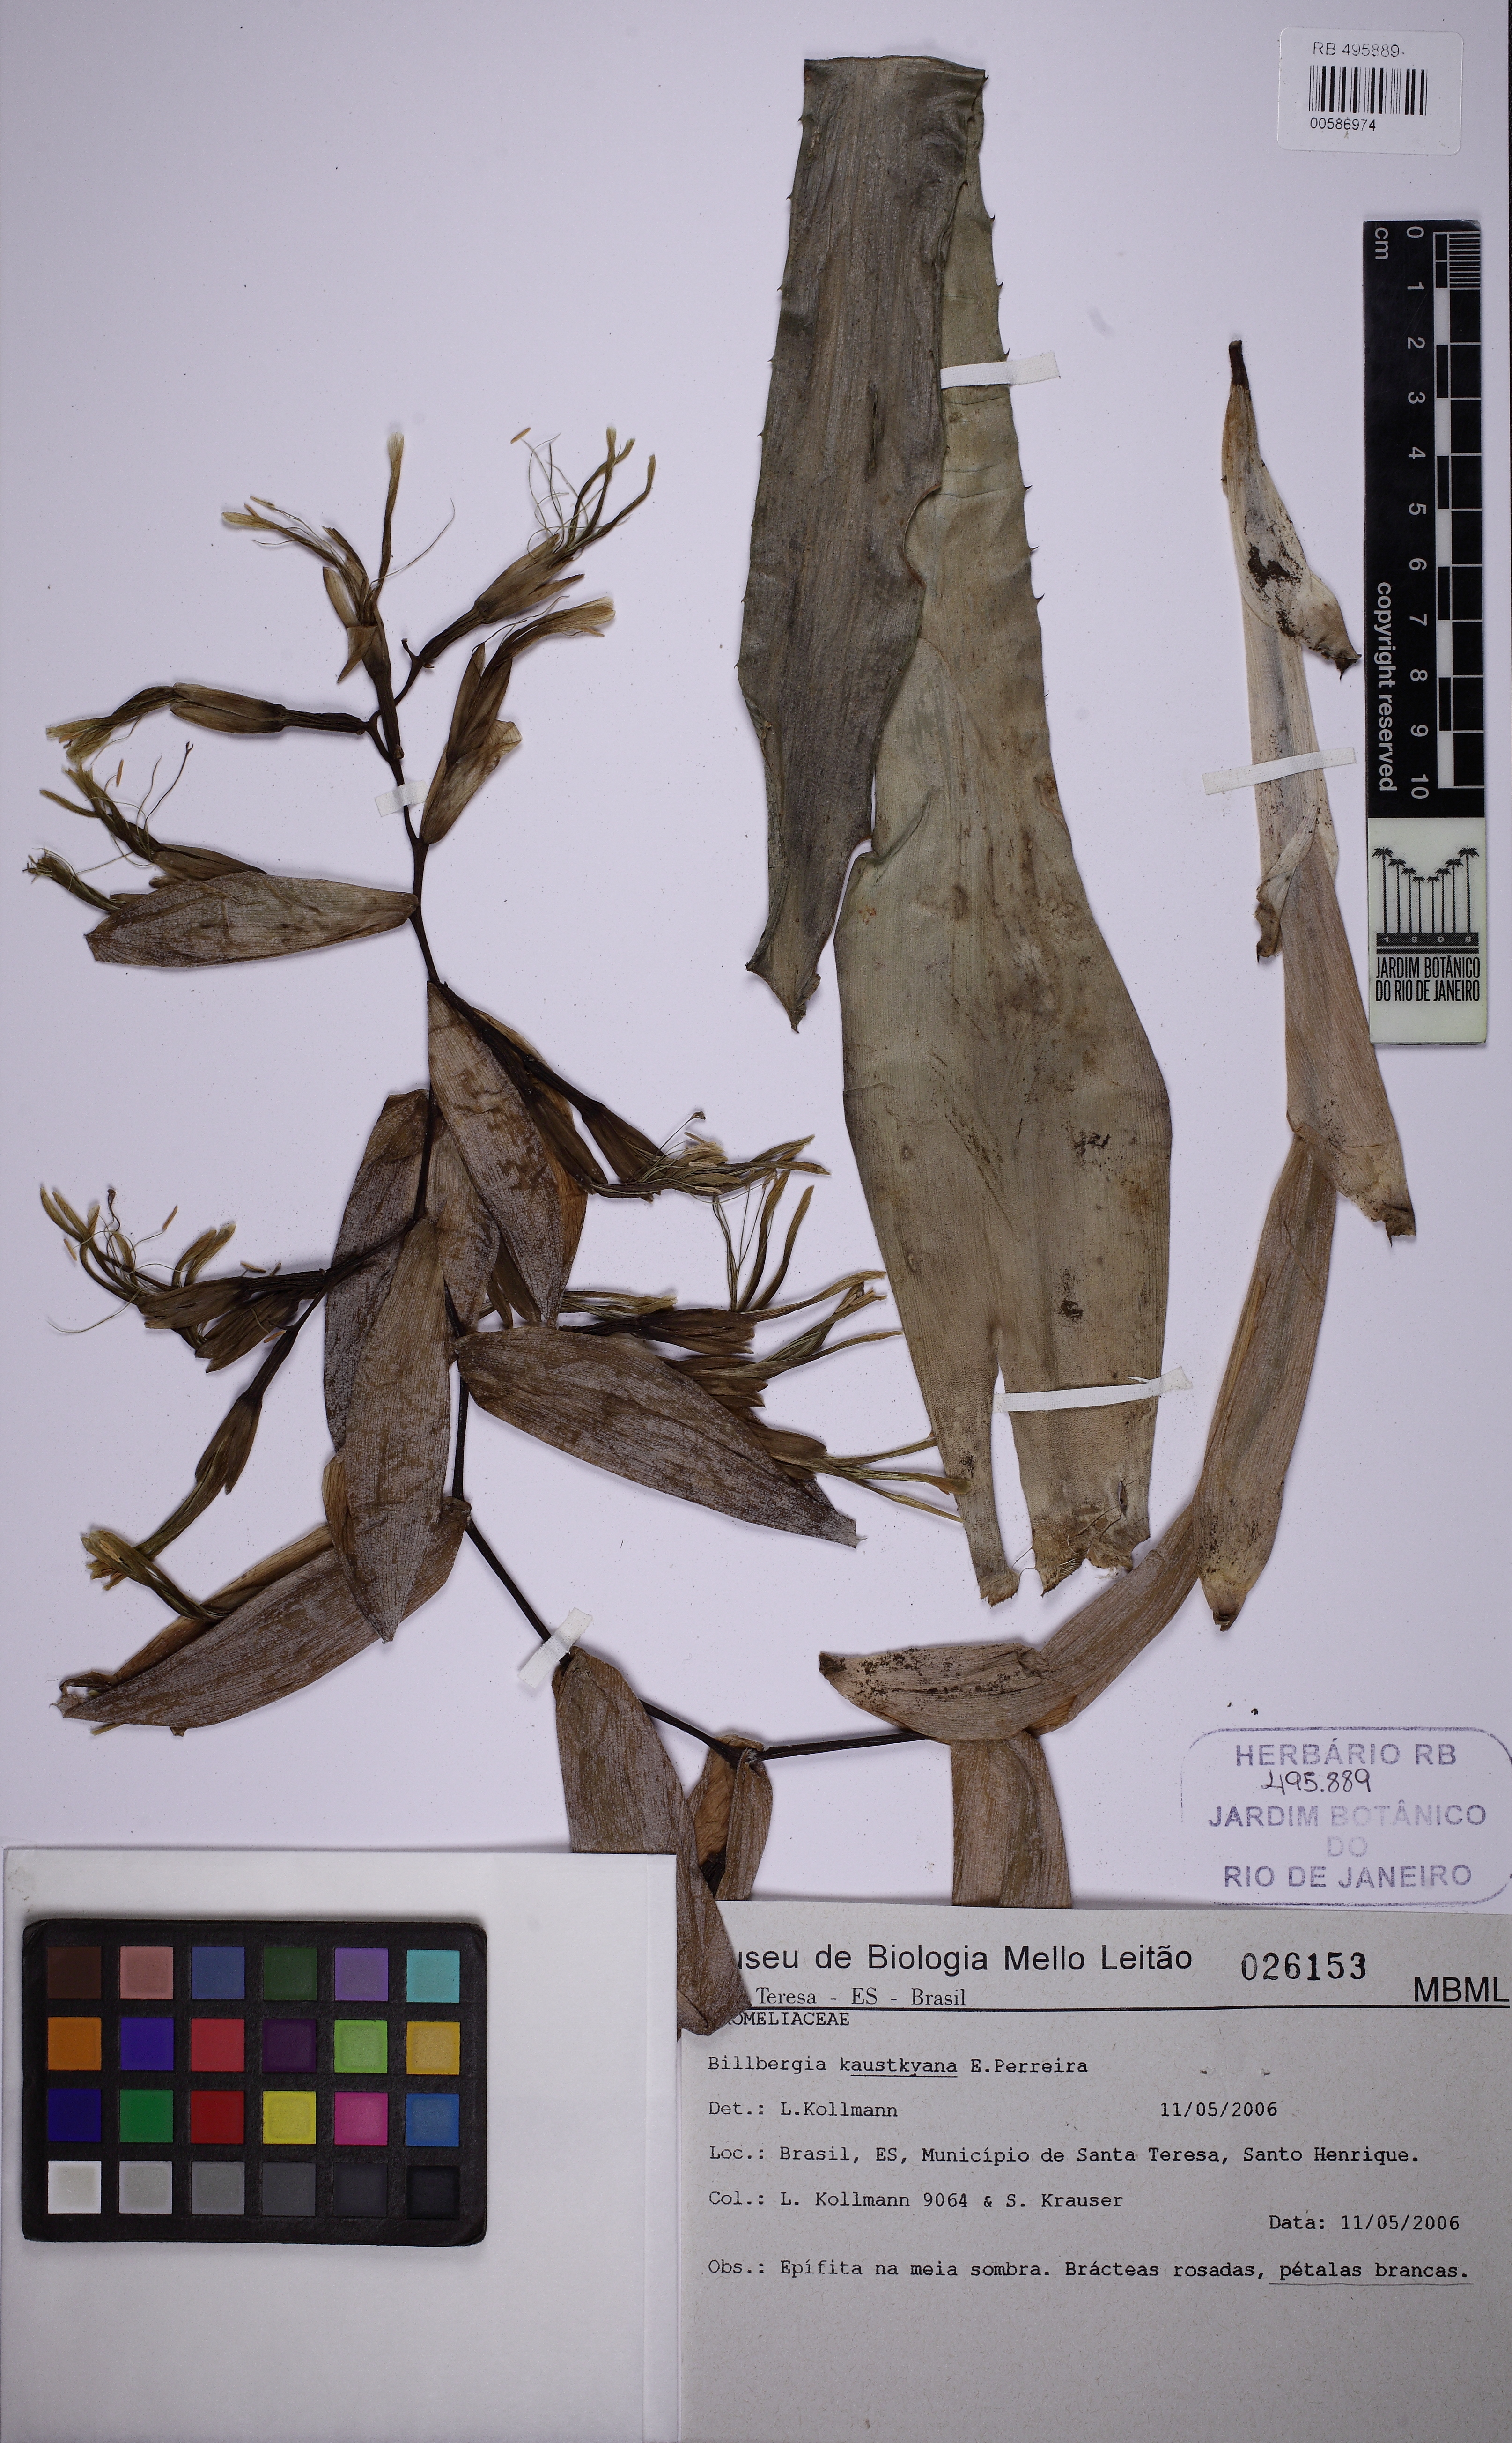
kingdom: Plantae
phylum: Tracheophyta
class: Liliopsida
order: Poales
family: Bromeliaceae
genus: Billbergia
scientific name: Billbergia kautskyana
